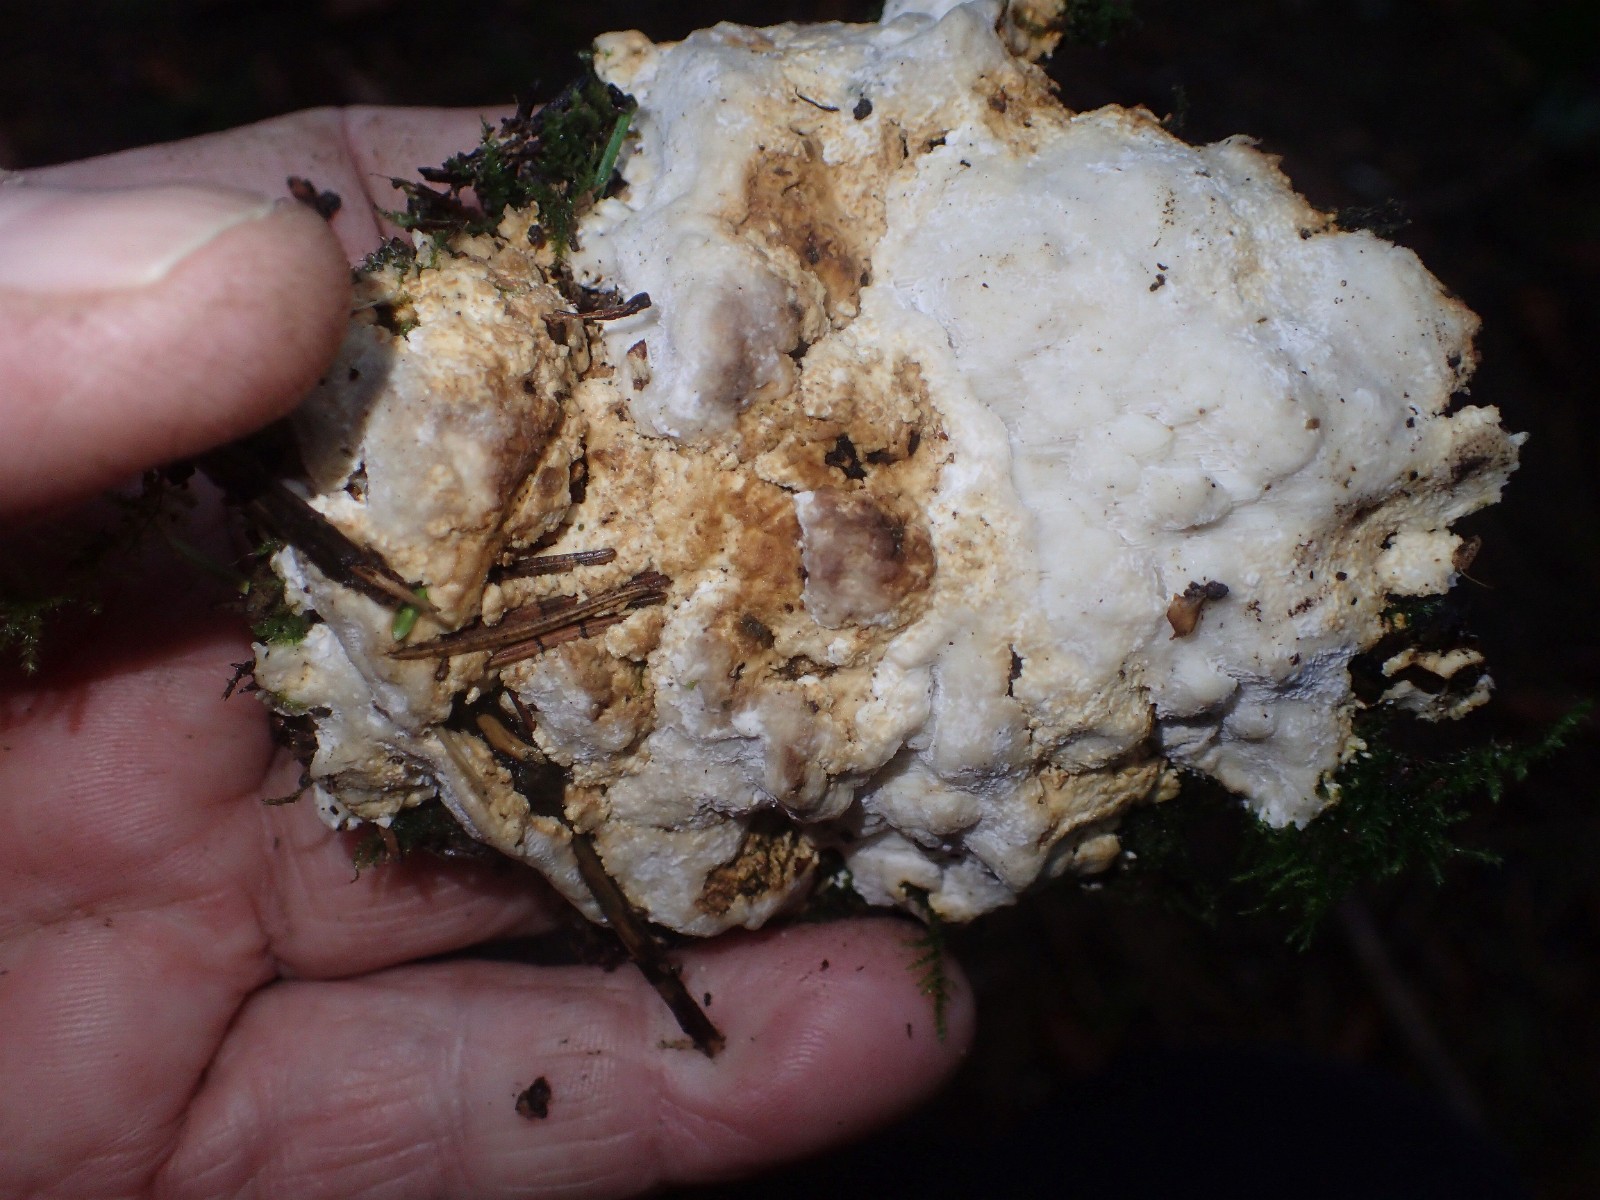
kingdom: Fungi
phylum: Basidiomycota
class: Agaricomycetes
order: Polyporales
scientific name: Polyporales
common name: poresvampordenen
